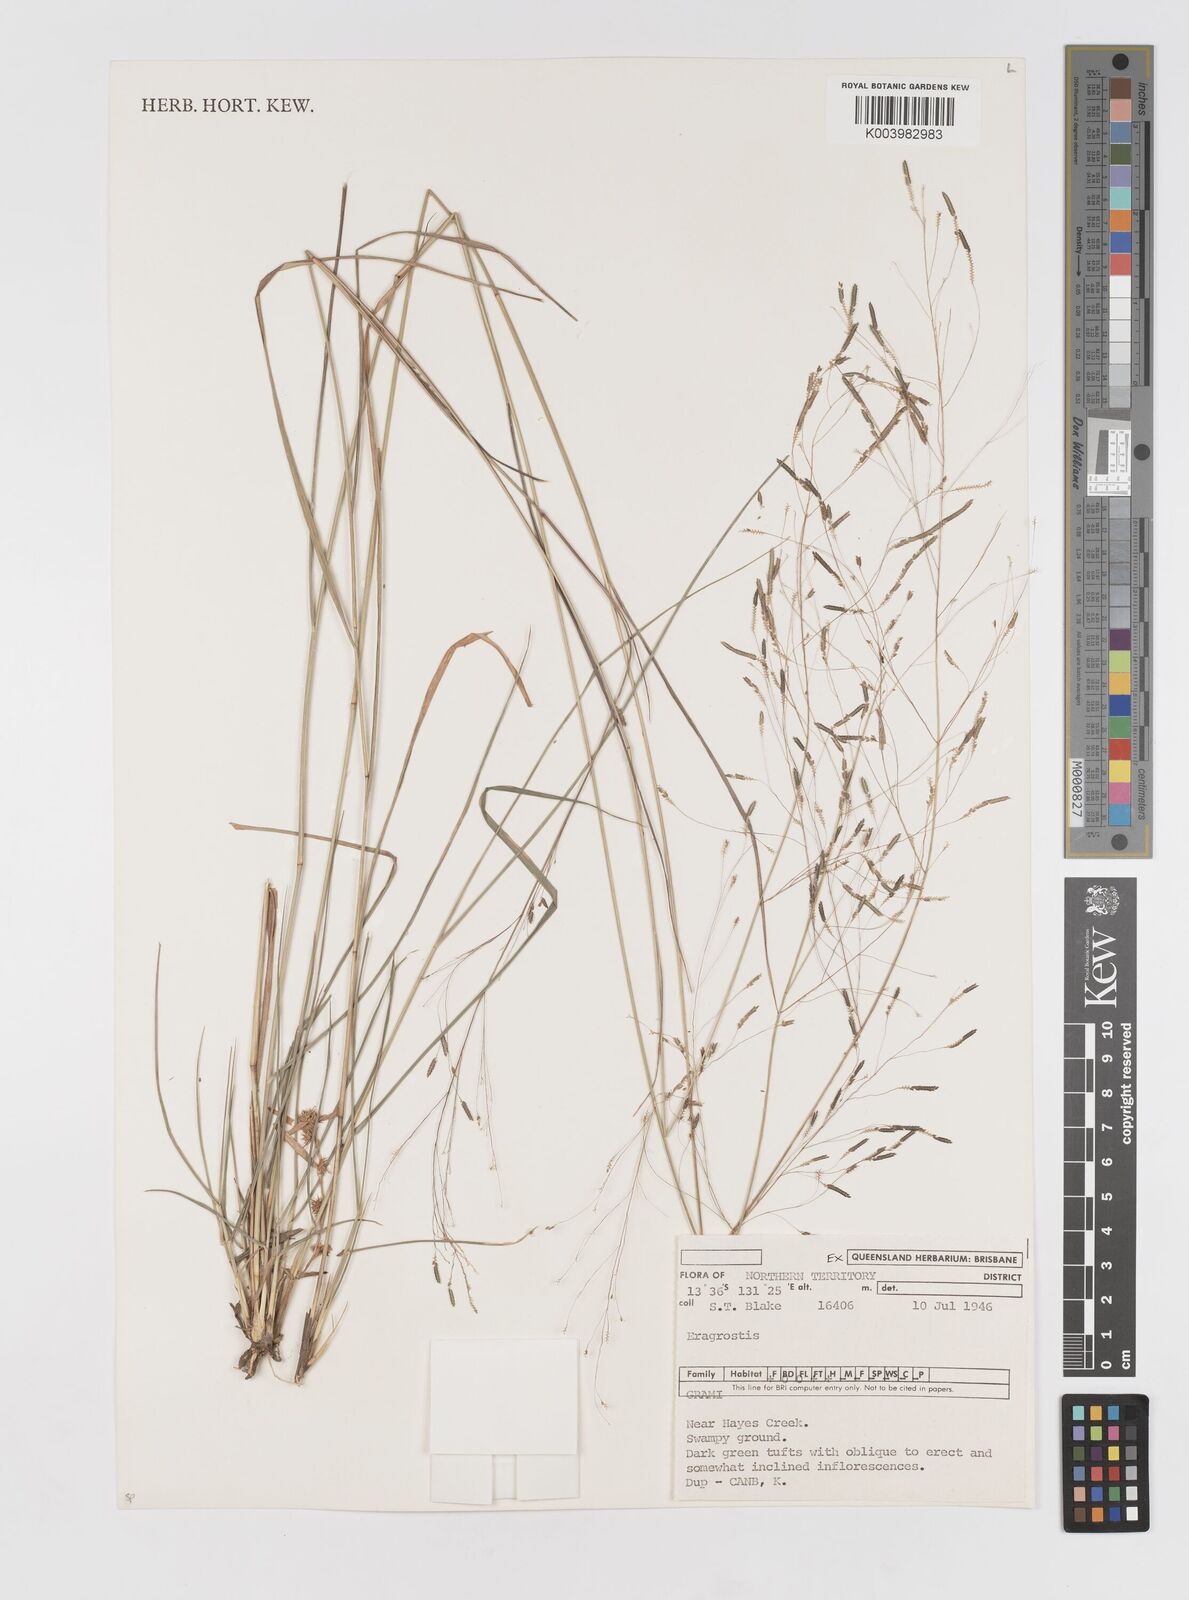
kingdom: Plantae
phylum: Tracheophyta
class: Liliopsida
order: Poales
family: Poaceae
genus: Eragrostis
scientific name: Eragrostis stagnalis
